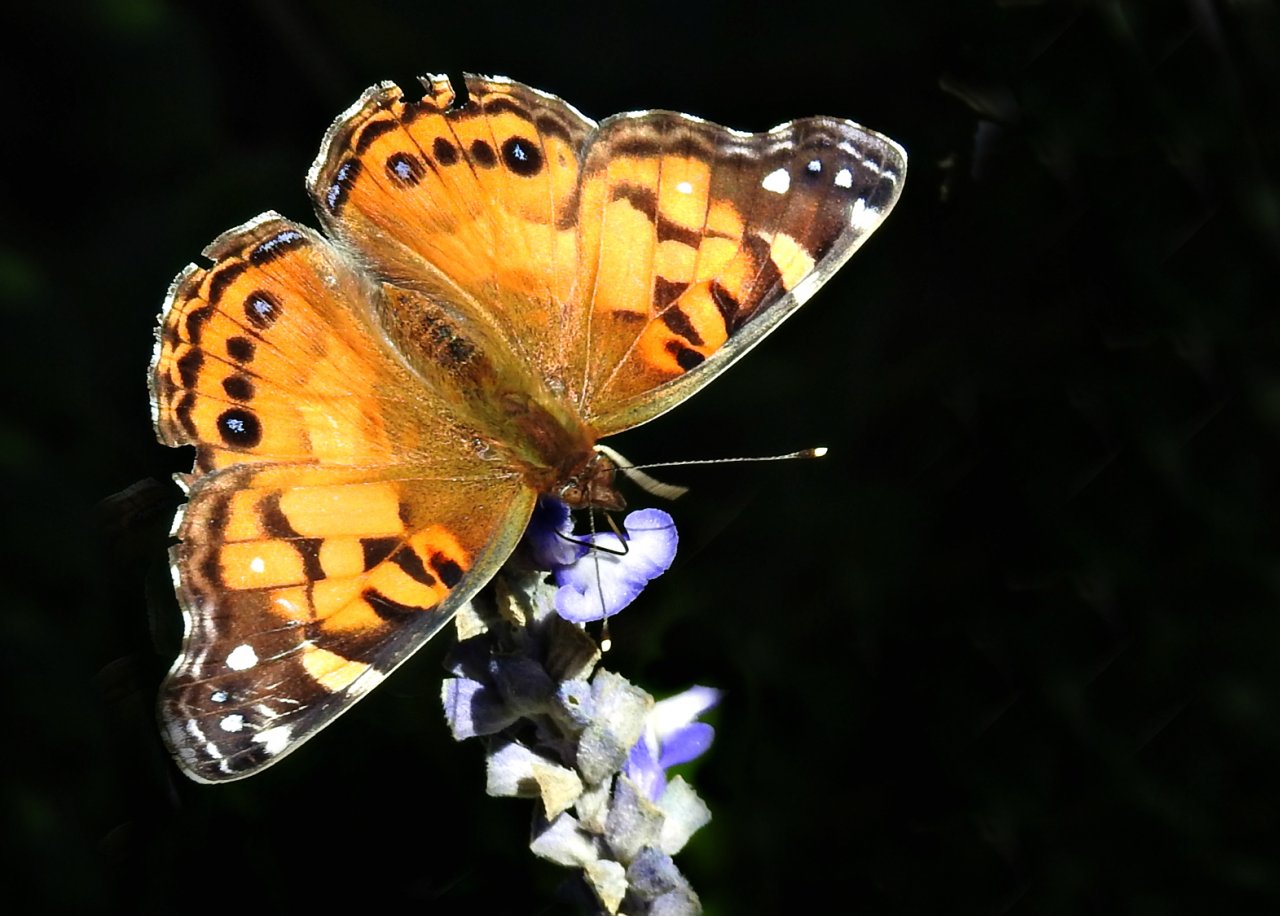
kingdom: Animalia
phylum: Arthropoda
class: Insecta
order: Lepidoptera
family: Nymphalidae
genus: Vanessa
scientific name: Vanessa virginiensis
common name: American Lady
